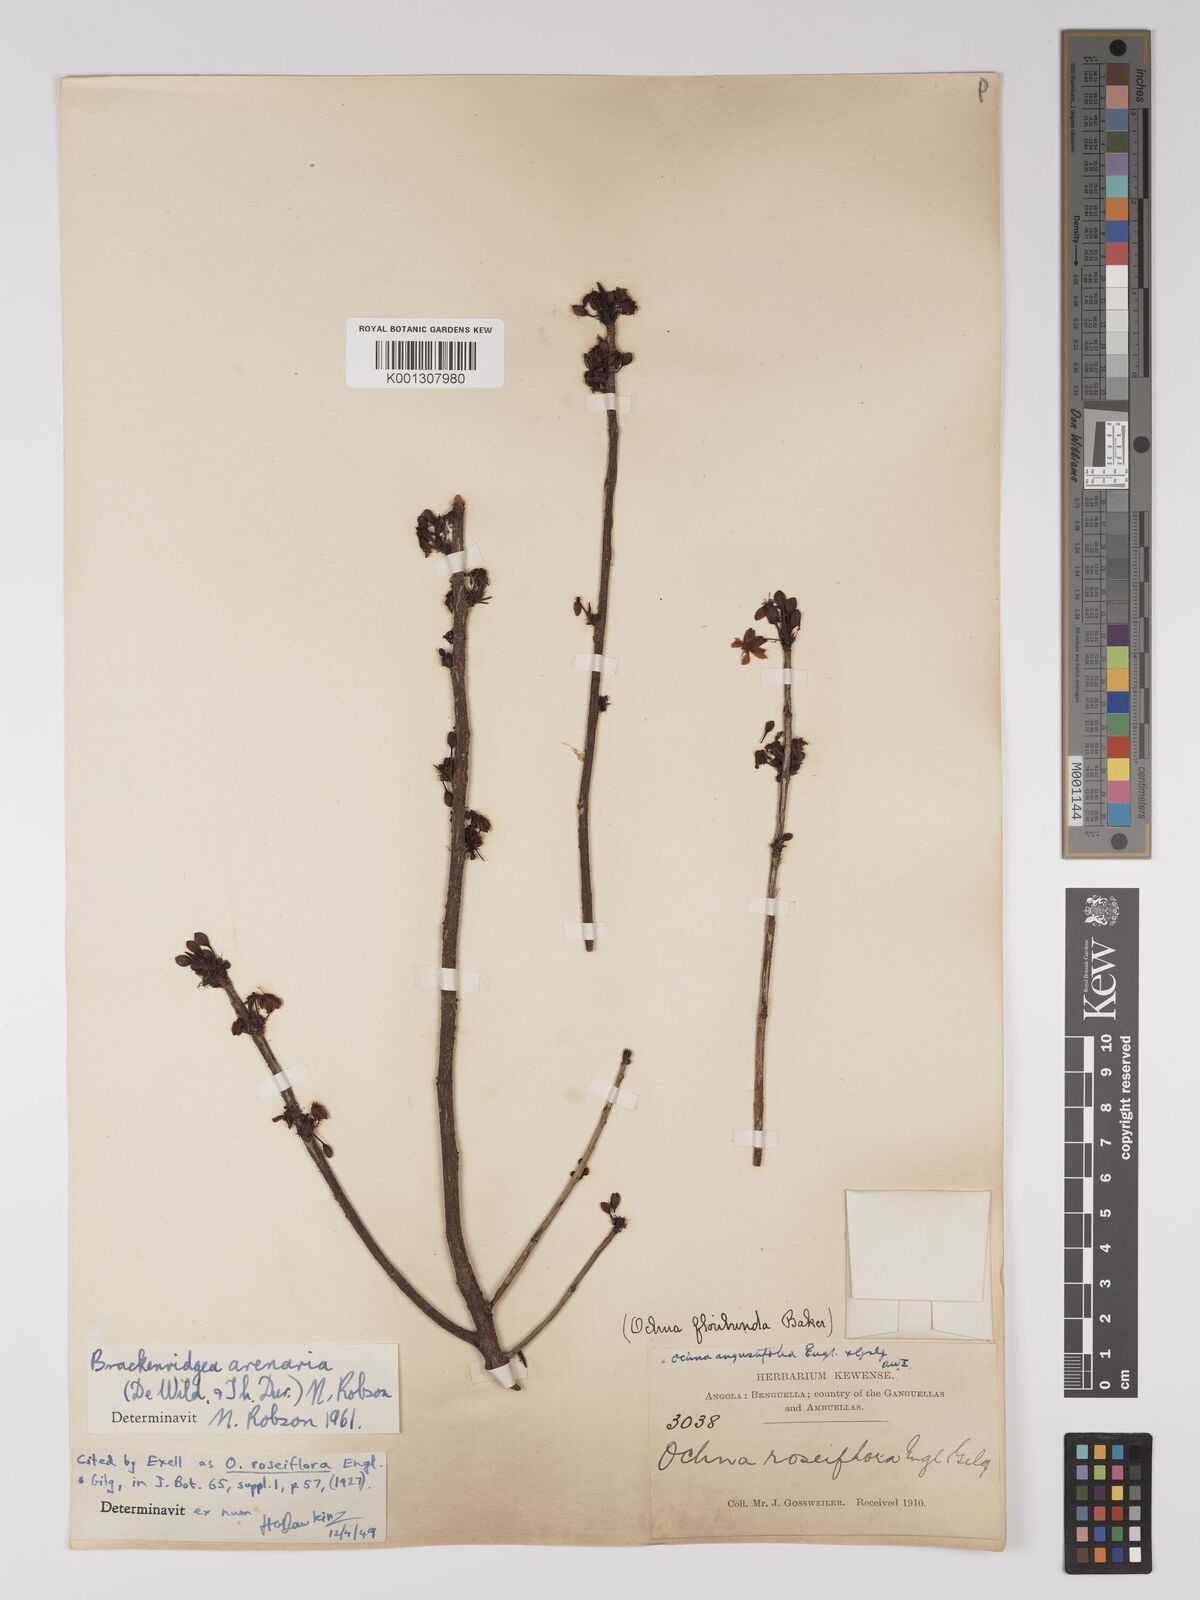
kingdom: Plantae
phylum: Tracheophyta
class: Magnoliopsida
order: Malpighiales
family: Ochnaceae
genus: Brackenridgea
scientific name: Brackenridgea
